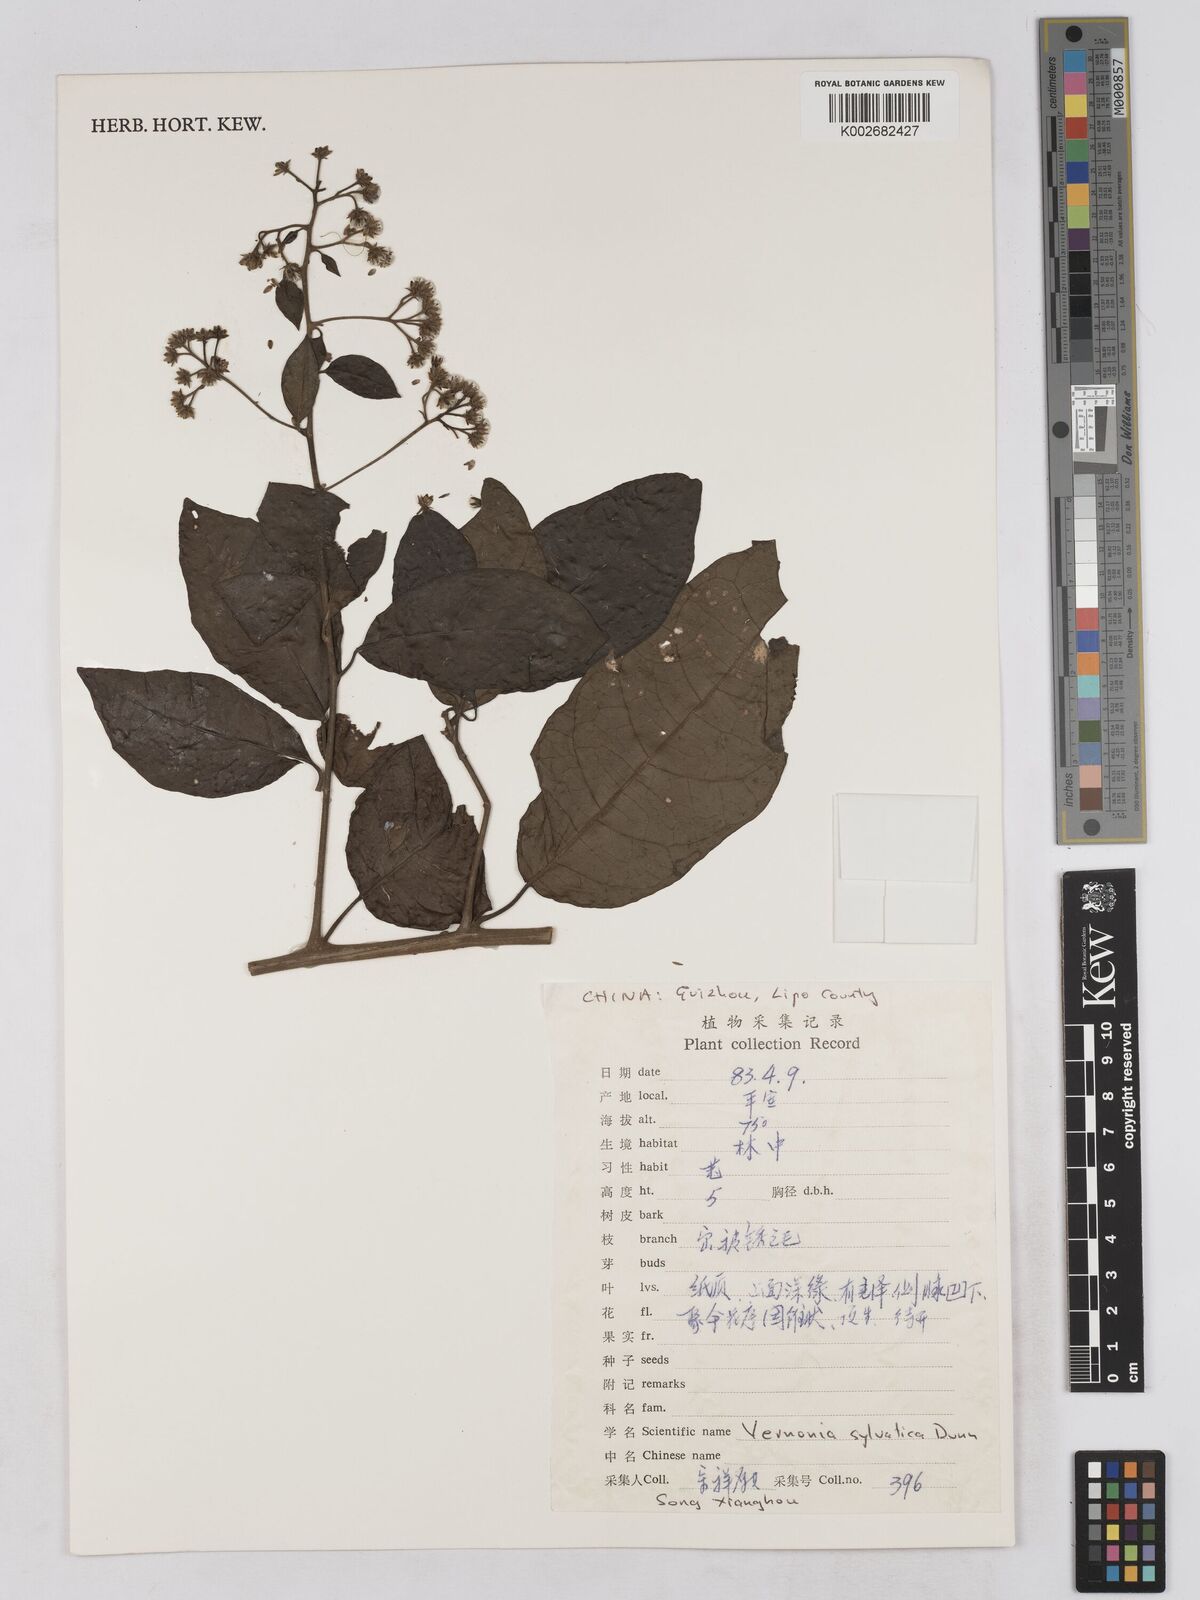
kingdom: Plantae
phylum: Tracheophyta
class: Magnoliopsida
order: Asterales
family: Asteraceae
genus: Strobocalyx
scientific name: Strobocalyx sylvatica
